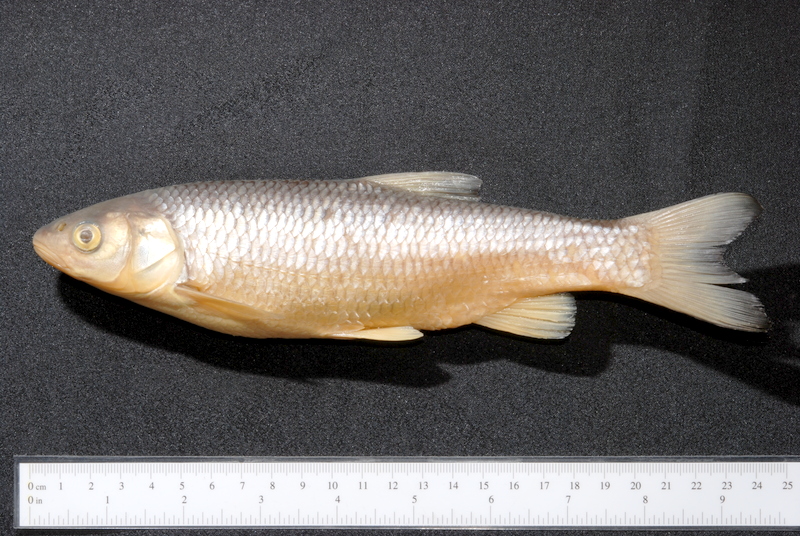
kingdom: Animalia
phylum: Chordata
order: Cypriniformes
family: Cyprinidae
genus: Squalius
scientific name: Squalius cephalus
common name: Chub
